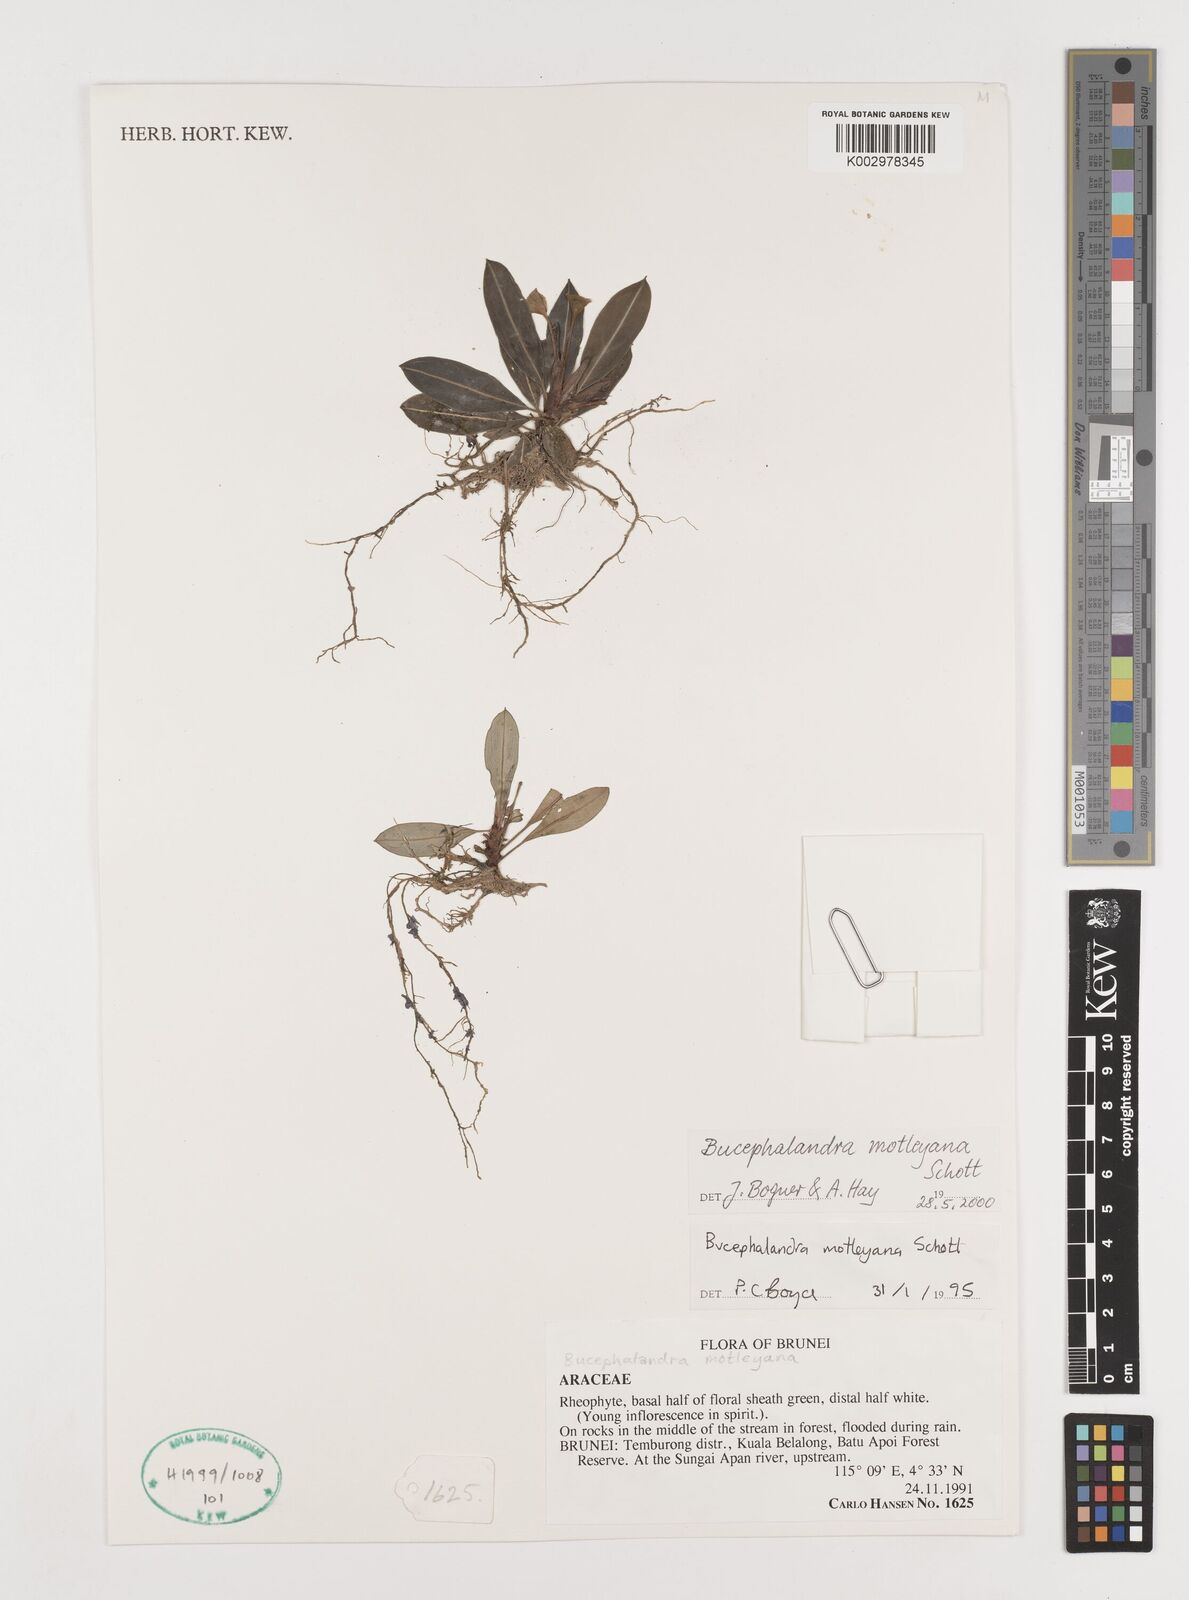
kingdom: Plantae
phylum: Tracheophyta
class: Liliopsida
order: Alismatales
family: Araceae
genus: Bucephalandra
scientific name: Bucephalandra motleyana
